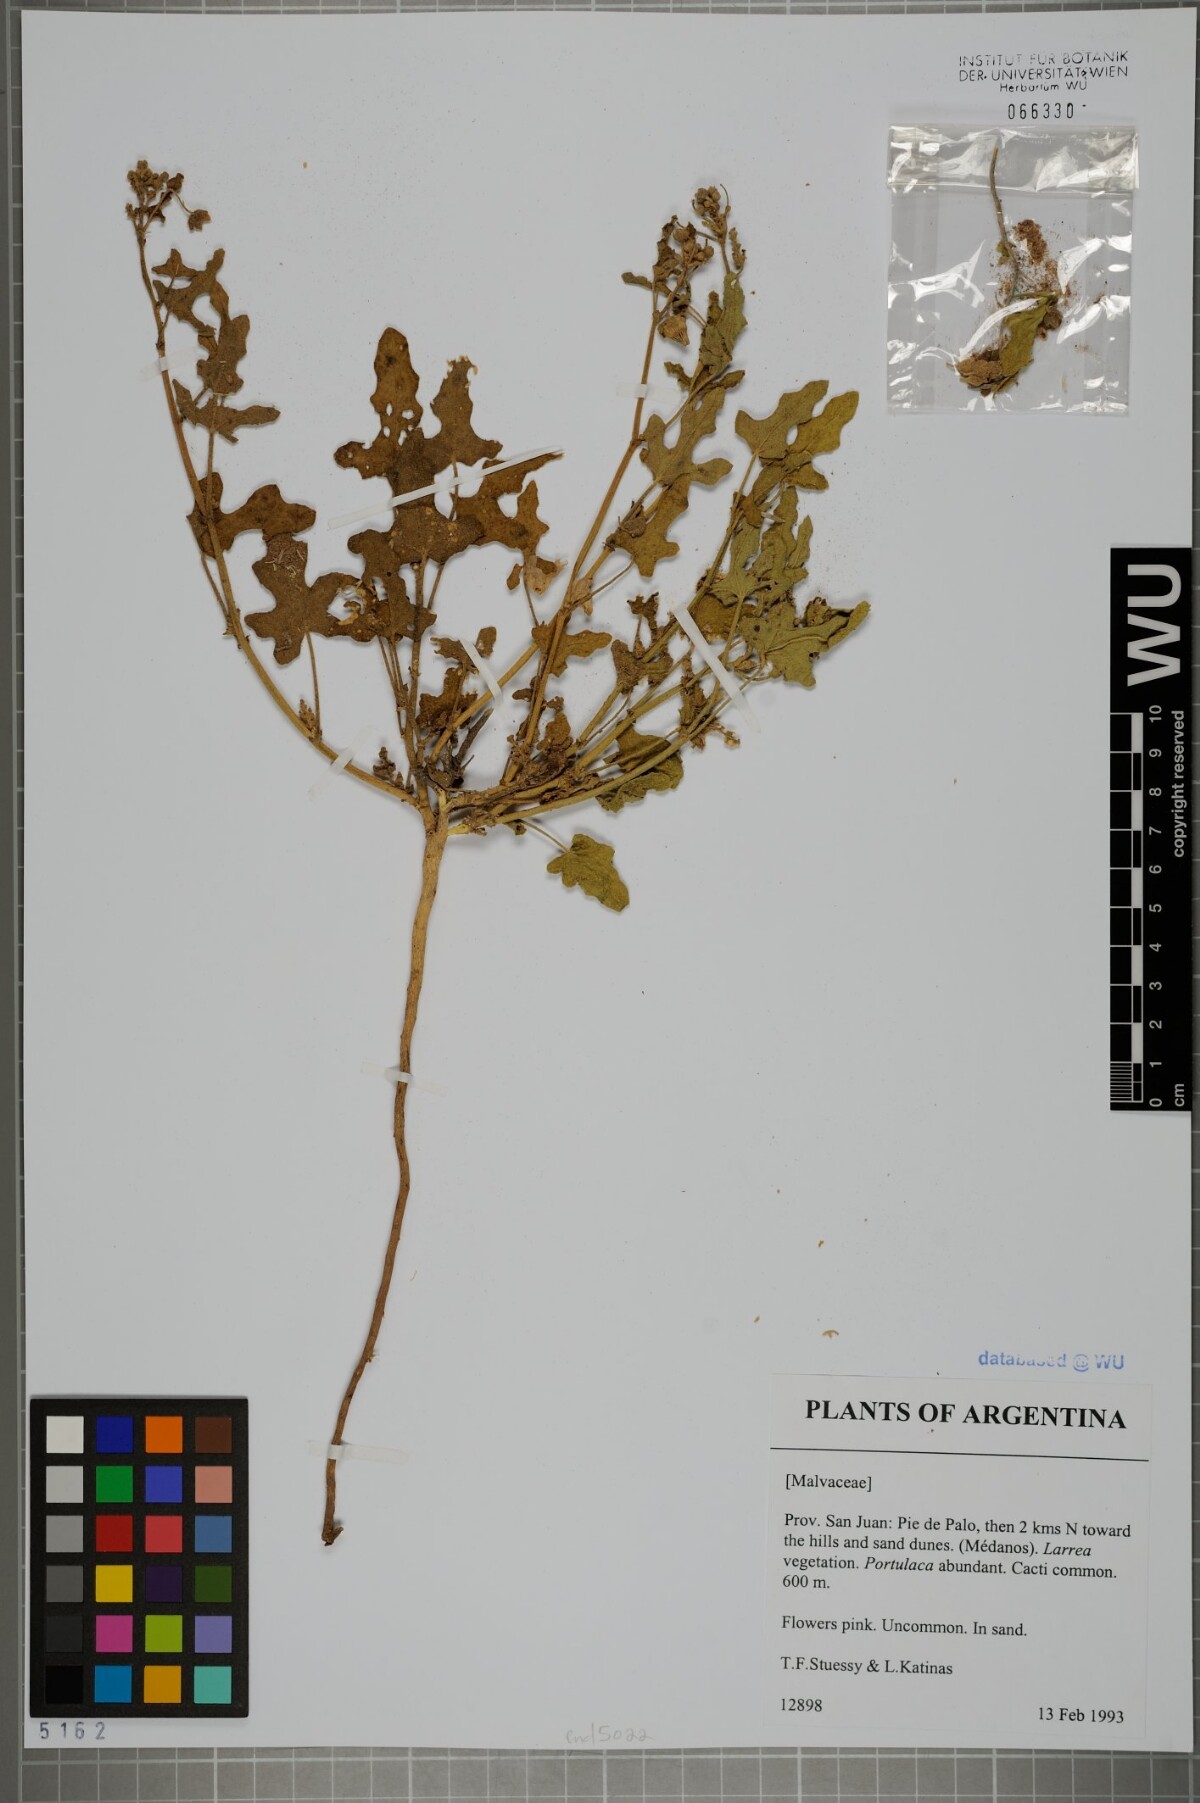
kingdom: Plantae
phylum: Tracheophyta
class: Magnoliopsida
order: Malvales
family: Malvaceae
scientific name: Malvaceae
